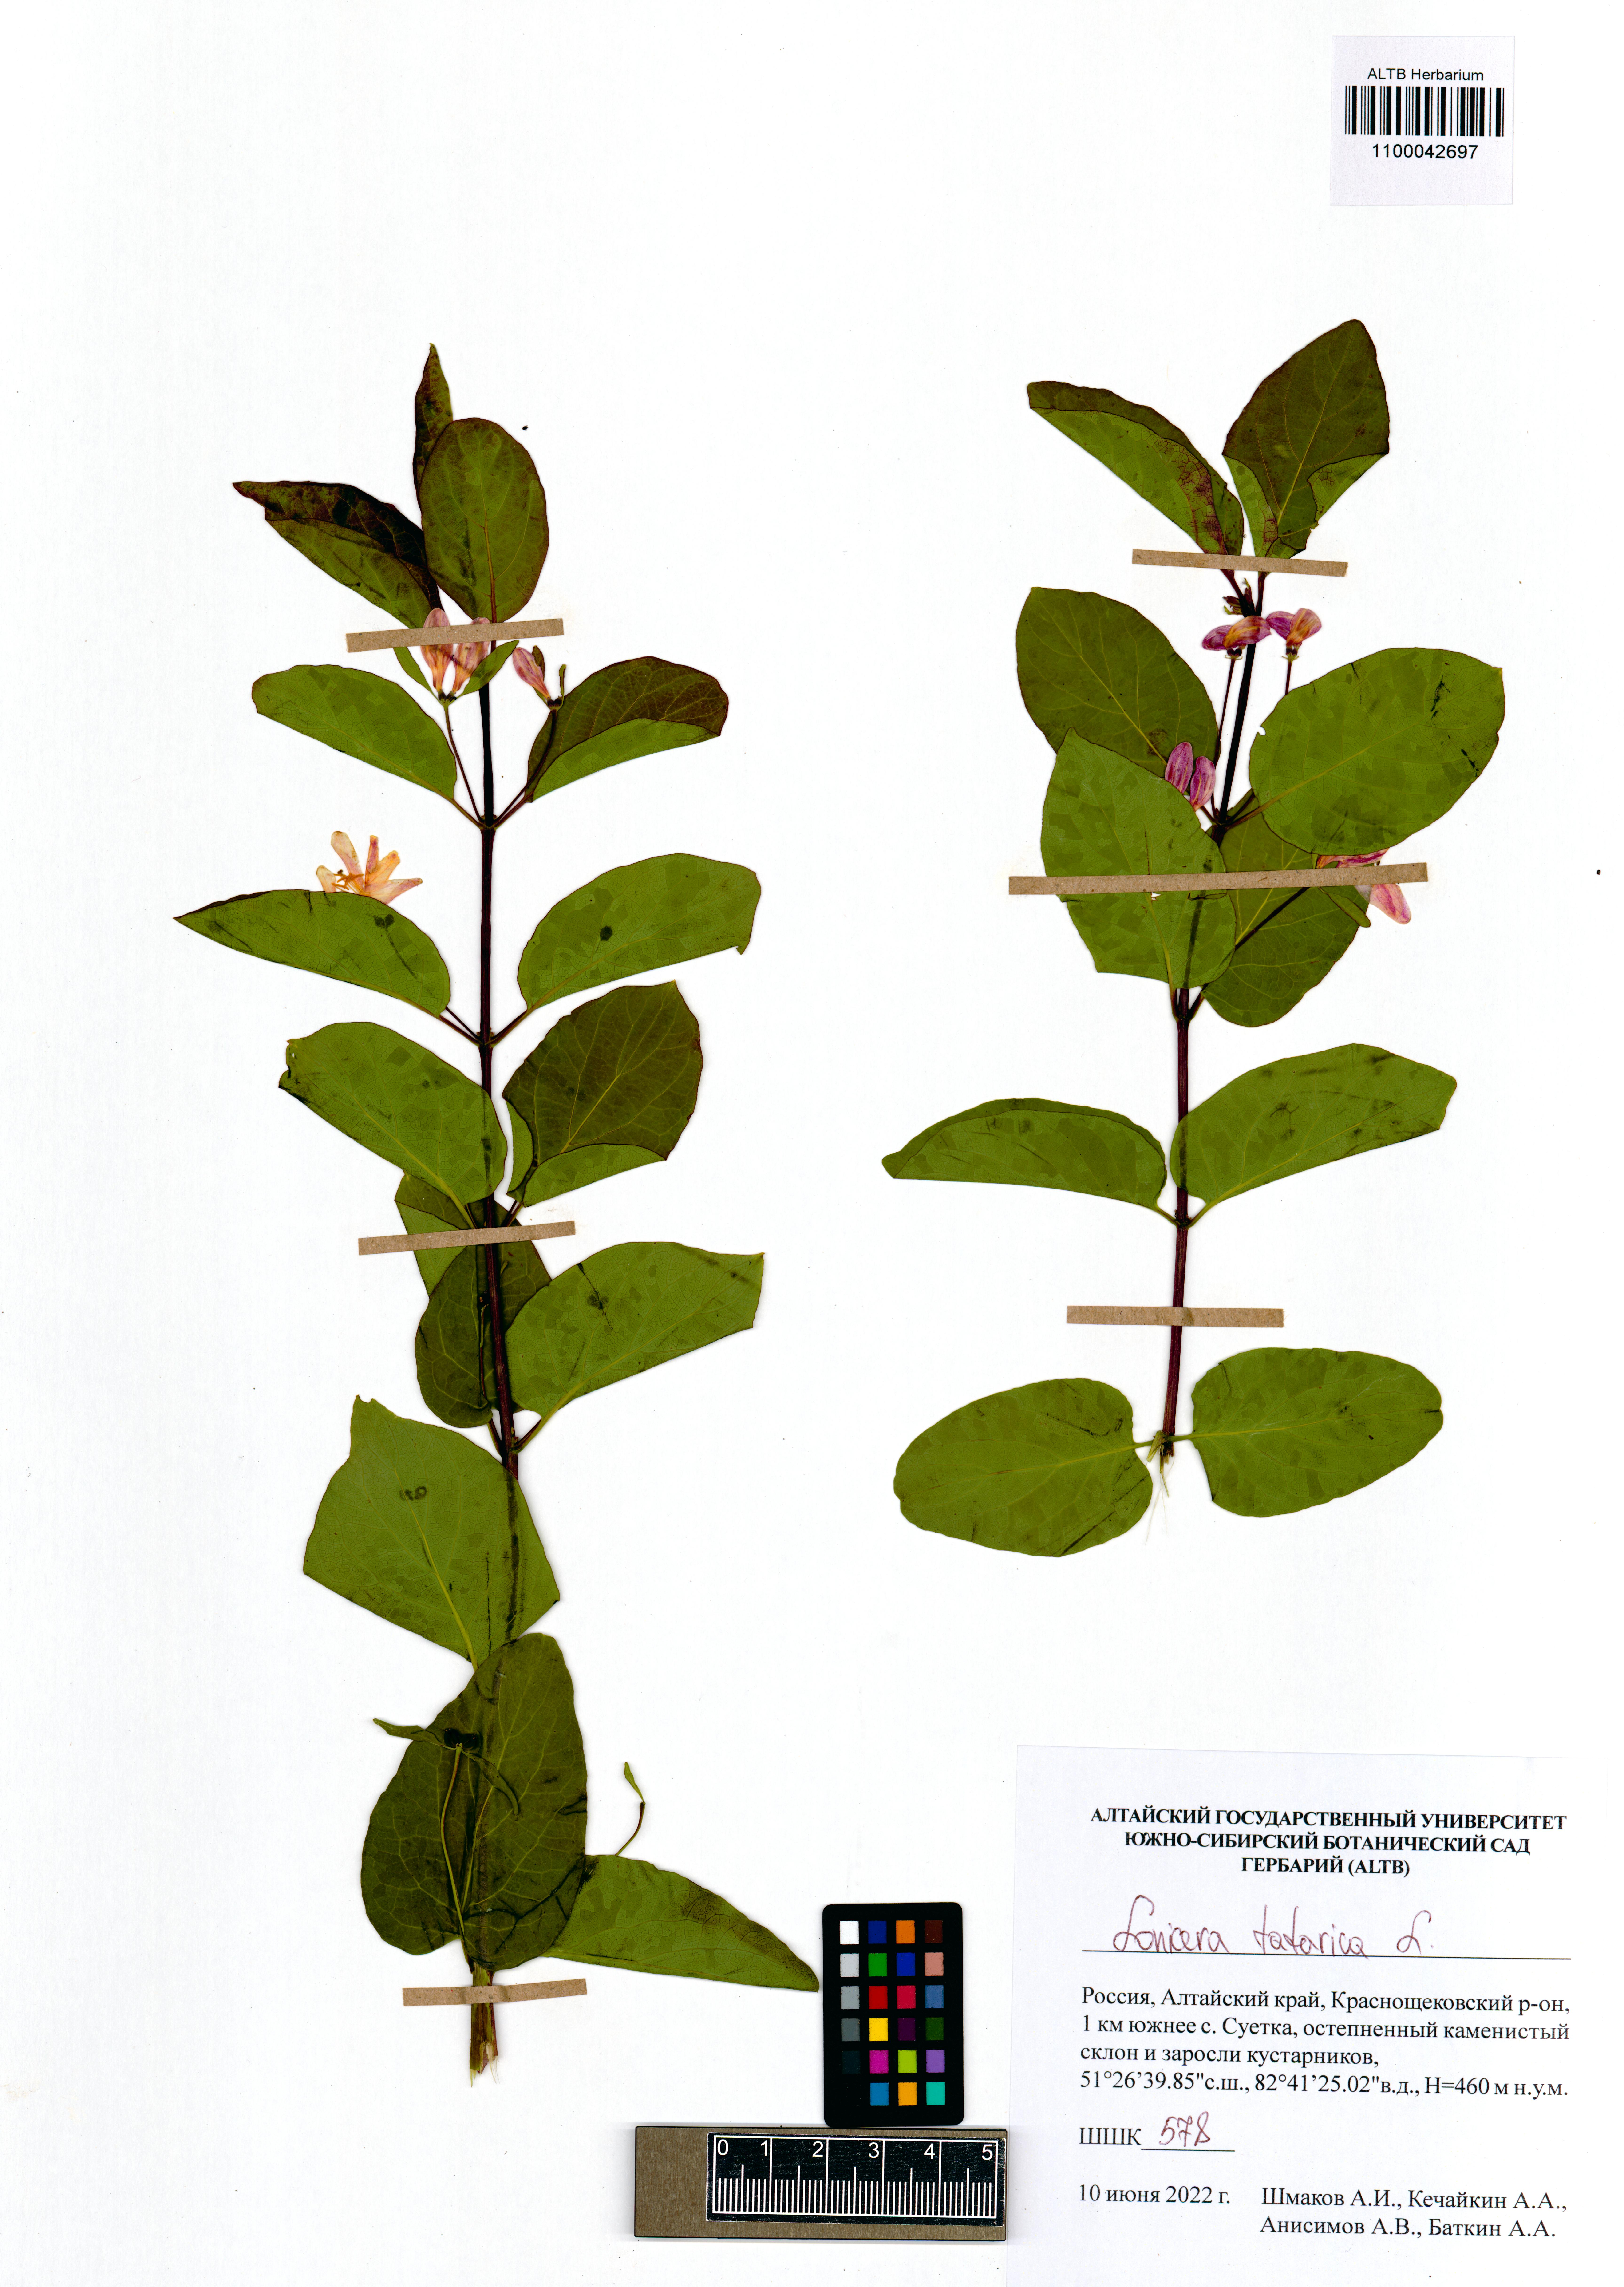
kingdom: Plantae
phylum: Tracheophyta
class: Magnoliopsida
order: Dipsacales
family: Caprifoliaceae
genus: Lonicera
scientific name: Lonicera tatarica
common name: Tatarian honeysuckle
